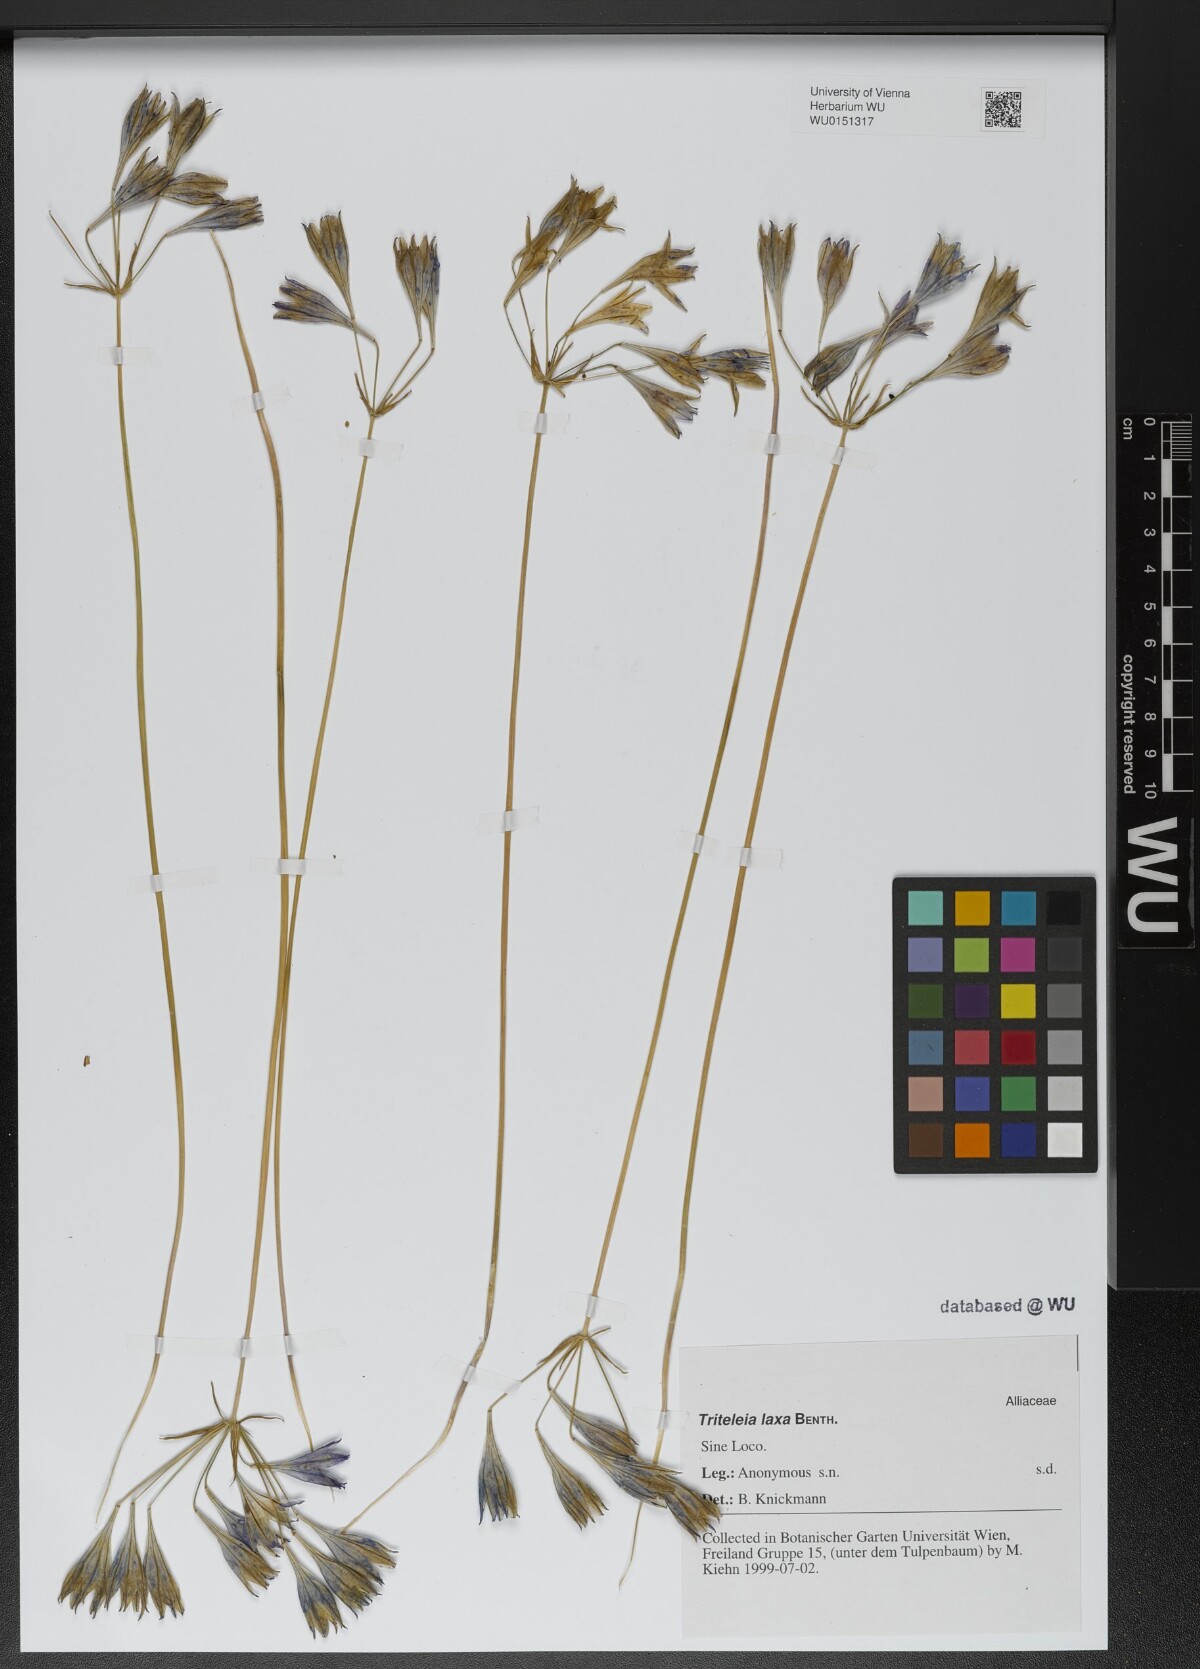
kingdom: Plantae
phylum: Tracheophyta
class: Liliopsida
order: Asparagales
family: Asparagaceae
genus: Triteleia
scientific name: Triteleia laxa
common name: Triplet-lily
